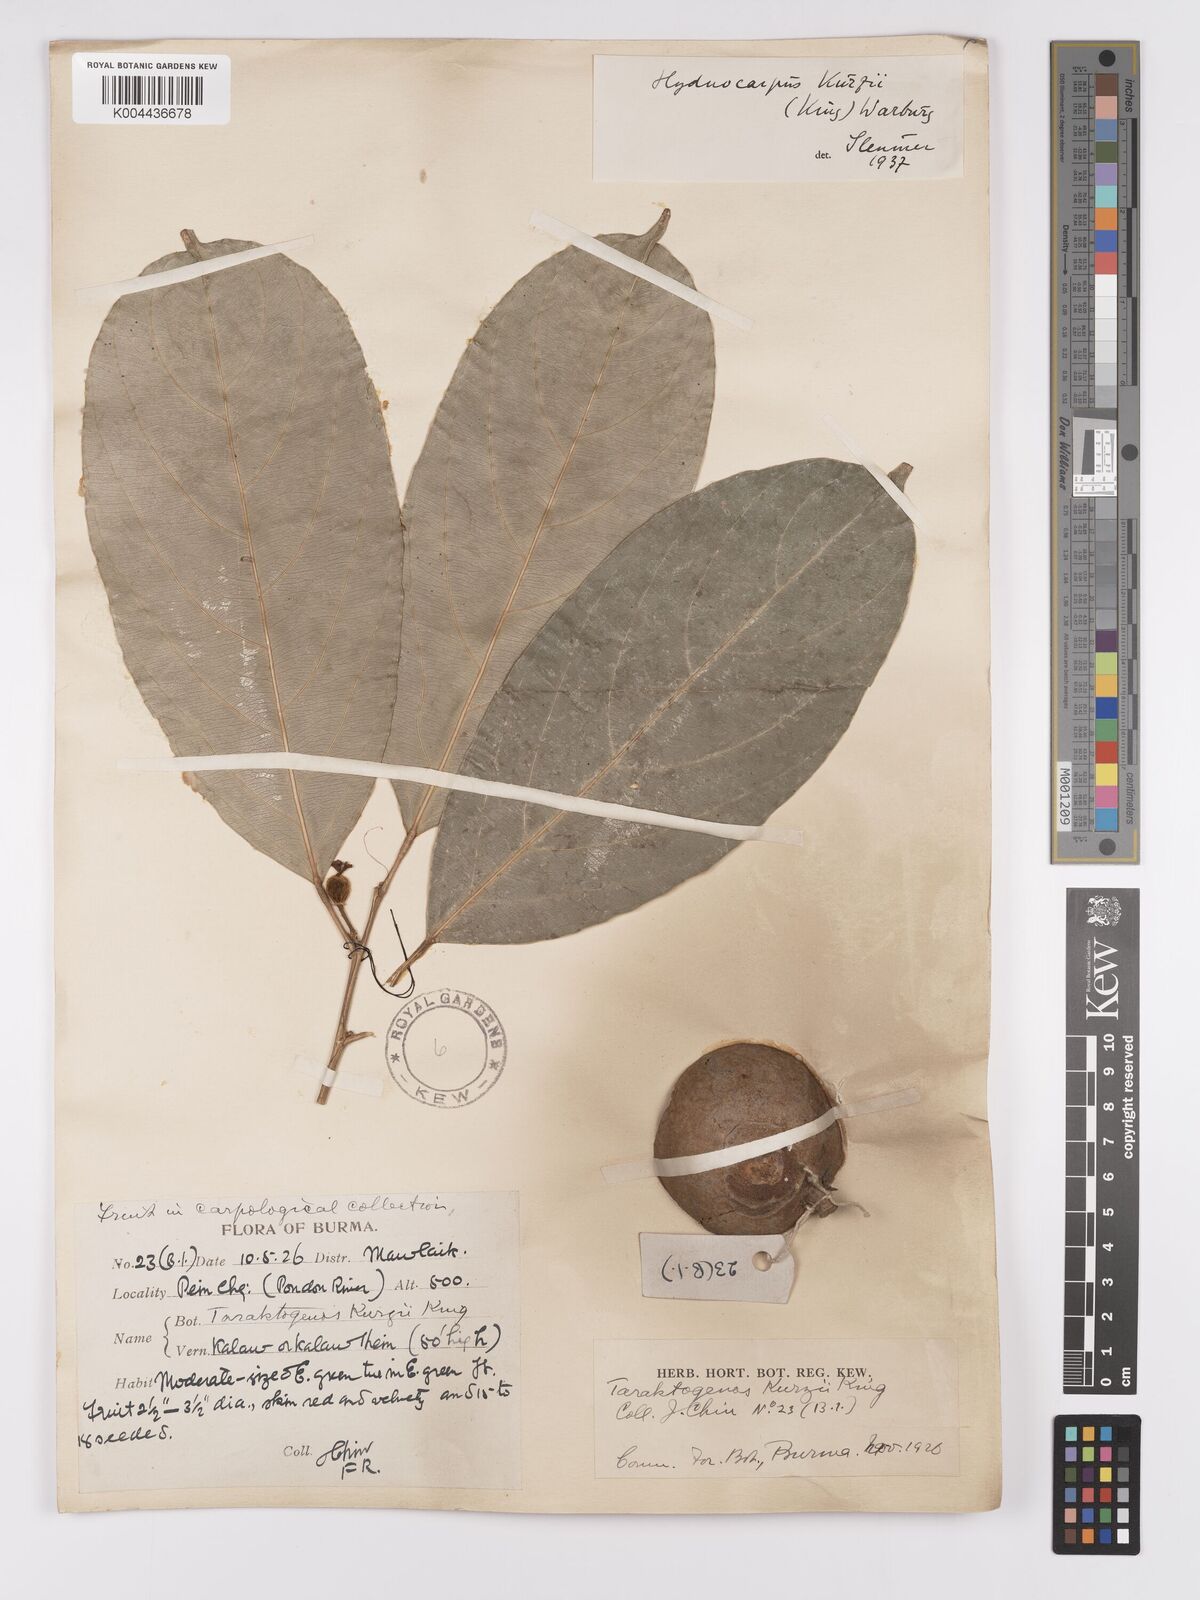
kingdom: Plantae
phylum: Tracheophyta
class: Magnoliopsida
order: Malpighiales
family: Achariaceae
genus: Hydnocarpus
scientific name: Hydnocarpus kurzii
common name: Chaulmoogra
